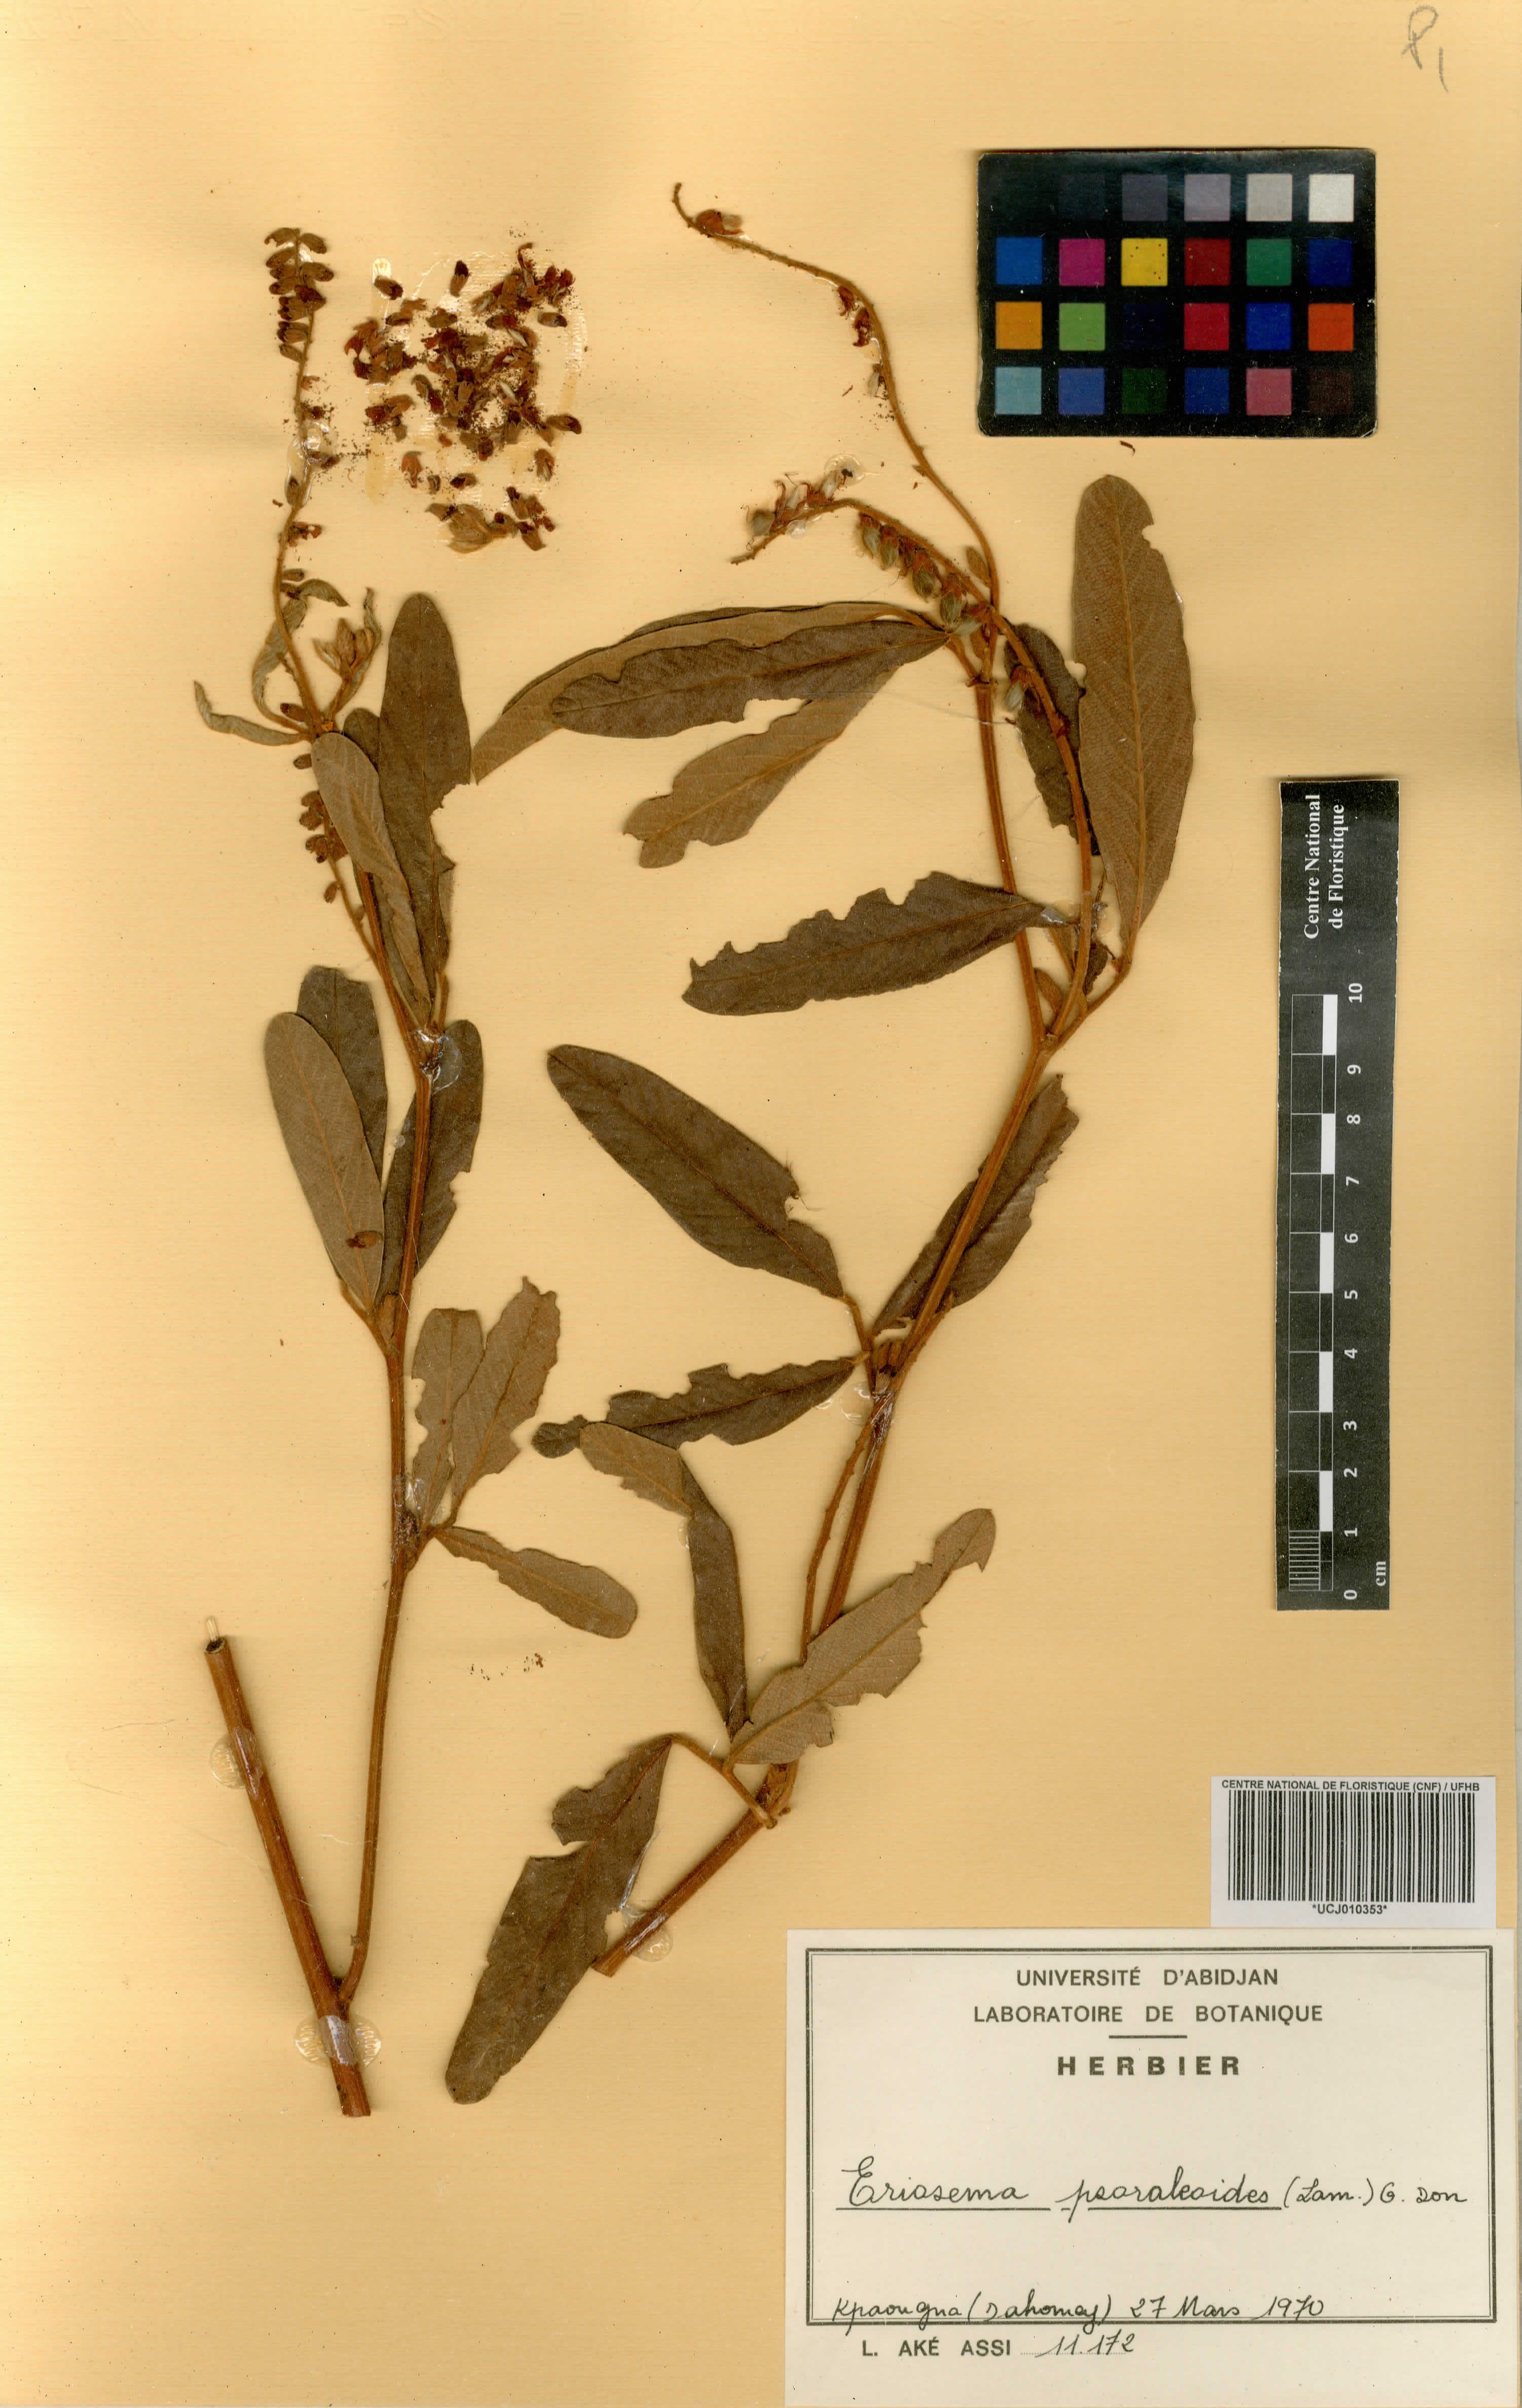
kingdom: Plantae
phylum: Tracheophyta
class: Magnoliopsida
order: Fabales
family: Fabaceae
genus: Eriosema
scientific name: Eriosema psoraleoides
